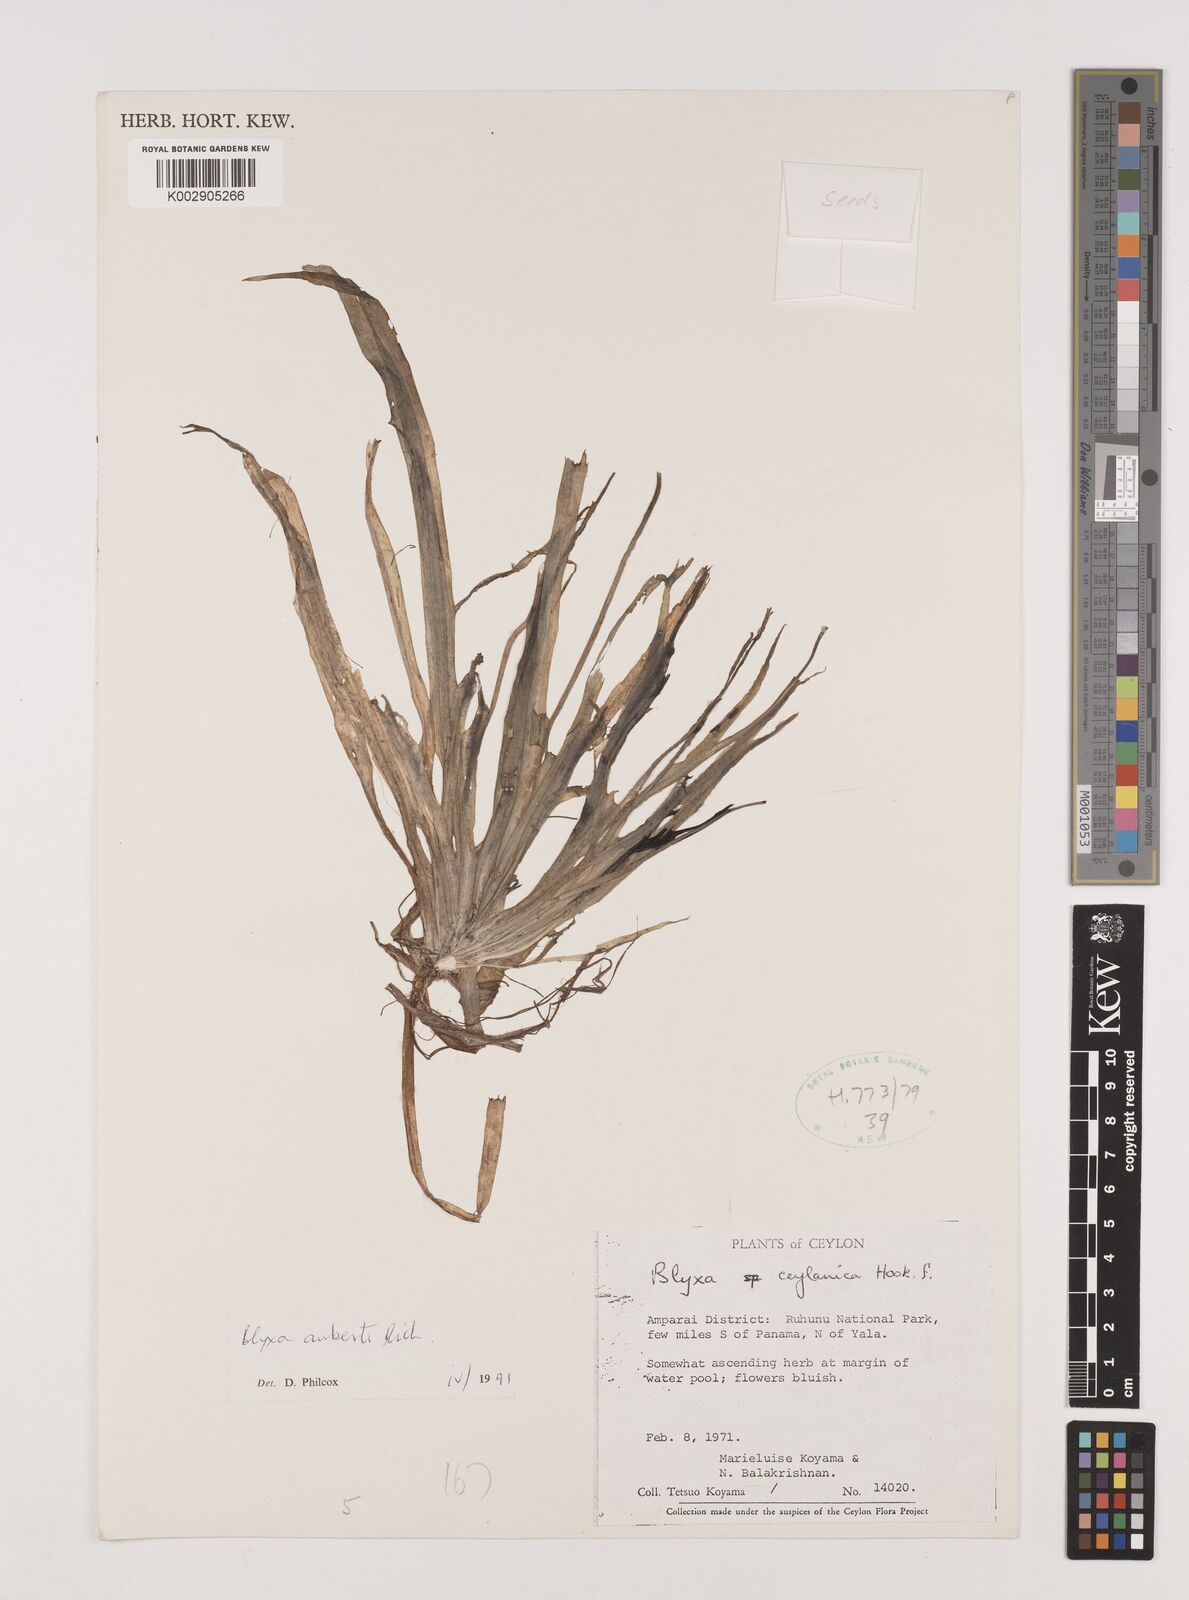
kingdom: Plantae
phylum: Tracheophyta
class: Liliopsida
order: Alismatales
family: Hydrocharitaceae
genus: Blyxa
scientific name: Blyxa aubertii
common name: Roundfruit blyxa
